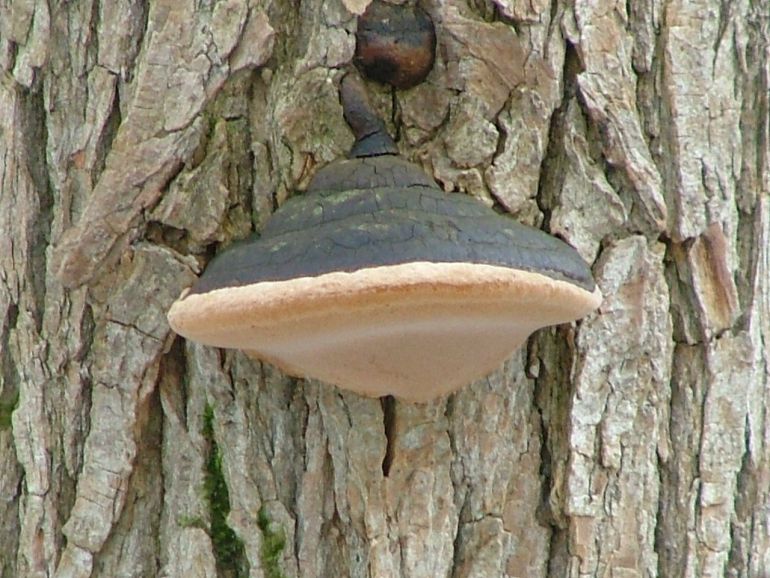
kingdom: Fungi
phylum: Basidiomycota
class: Agaricomycetes
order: Hymenochaetales
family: Hymenochaetaceae
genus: Phellinus
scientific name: Phellinus igniarius
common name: almindelig ildporesvamp
